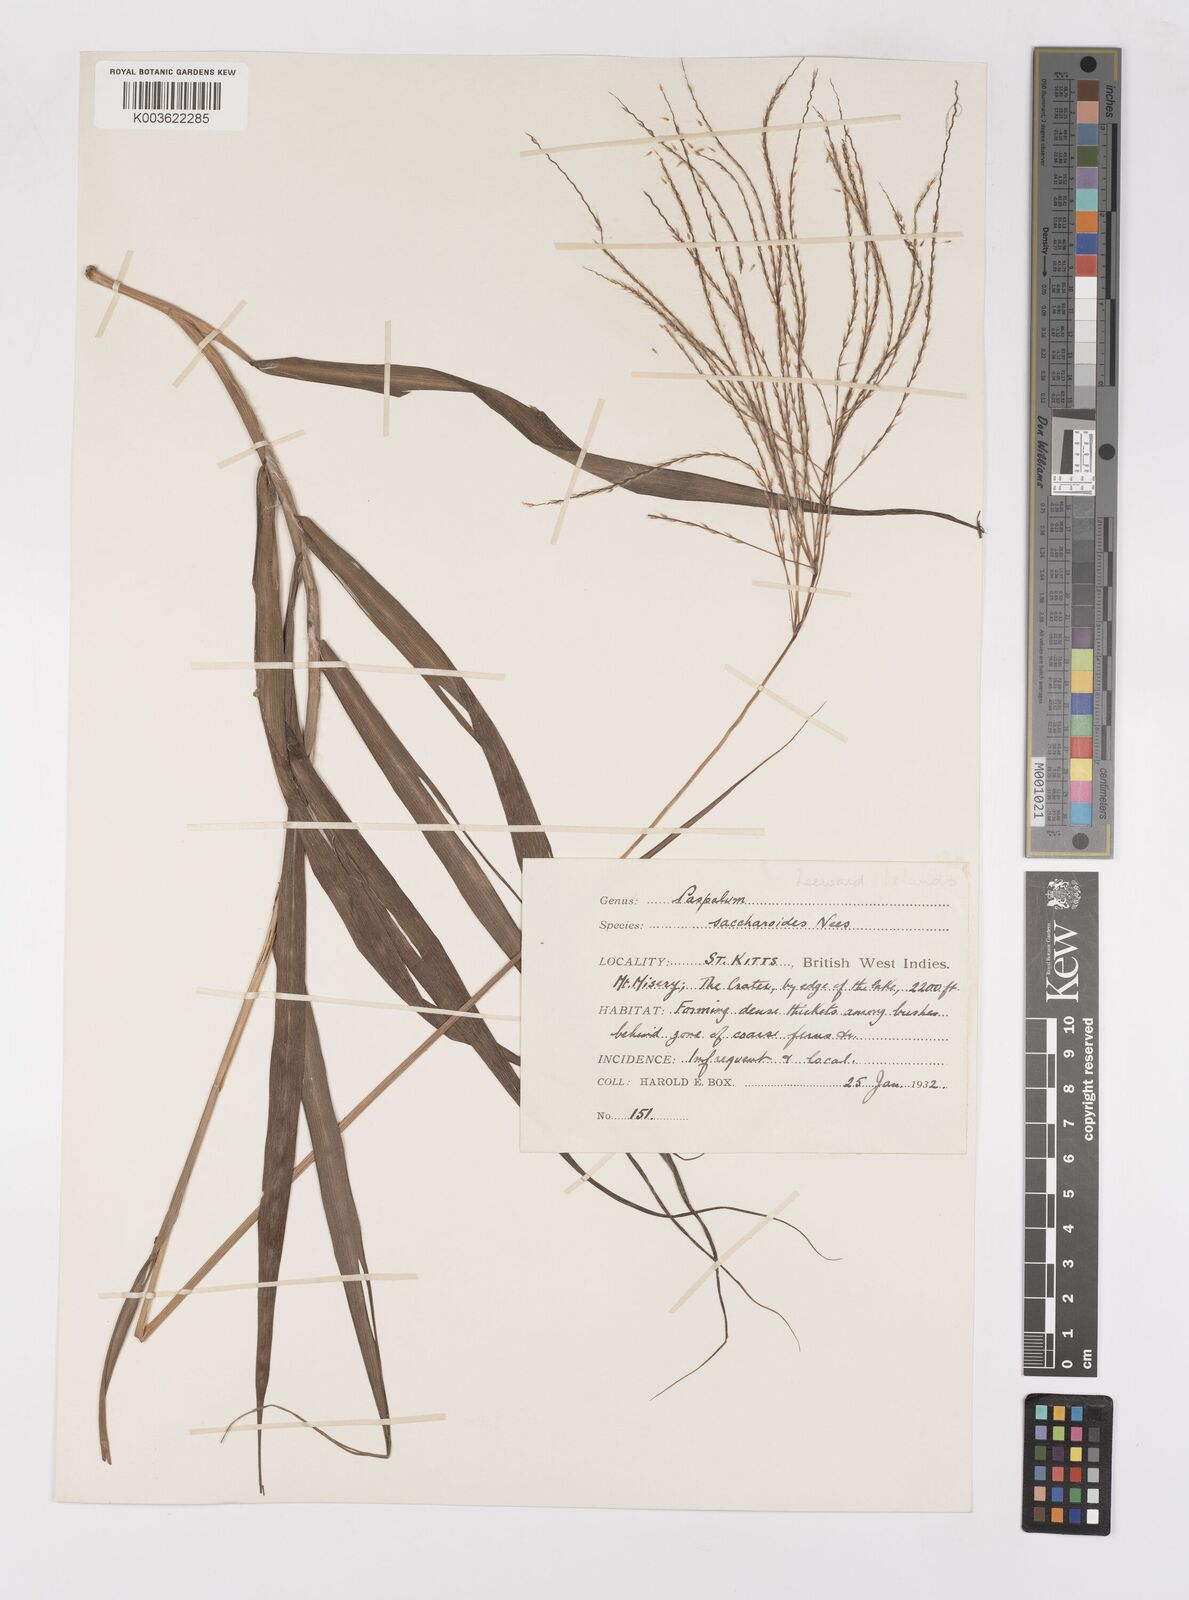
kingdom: Plantae
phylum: Tracheophyta
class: Liliopsida
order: Poales
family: Poaceae
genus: Paspalum
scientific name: Paspalum saccharoides
